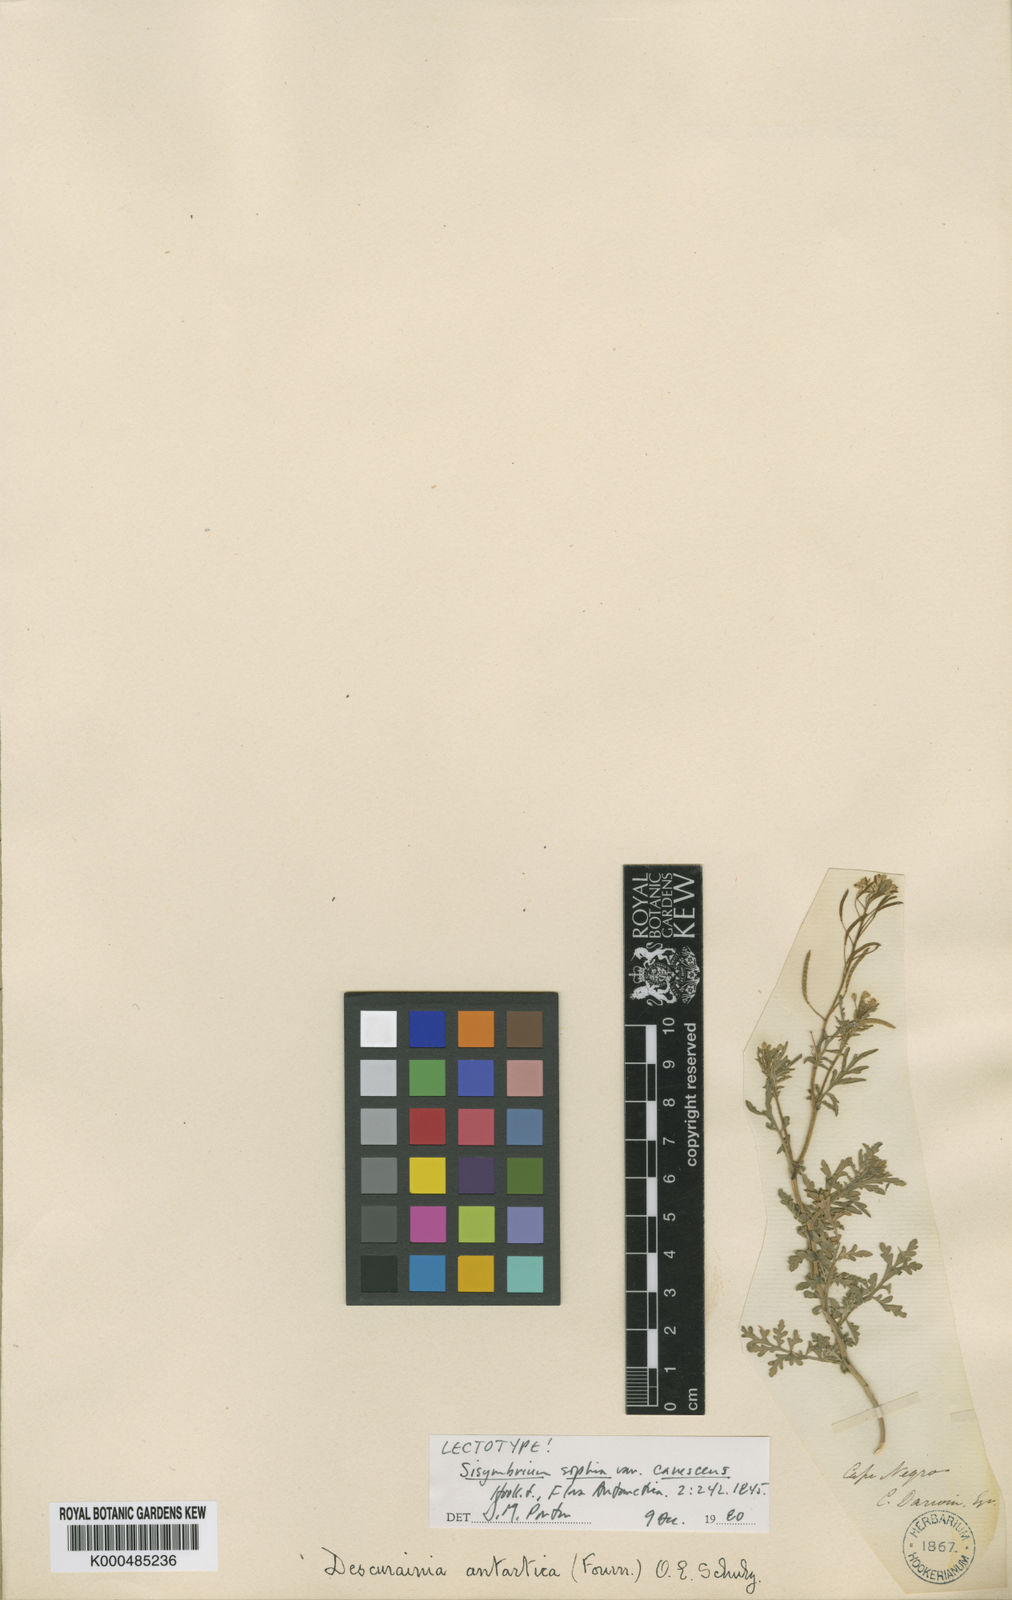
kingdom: Plantae
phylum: Tracheophyta
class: Magnoliopsida
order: Brassicales
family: Brassicaceae
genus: Descurainia
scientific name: Descurainia sophia
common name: Flixweed
